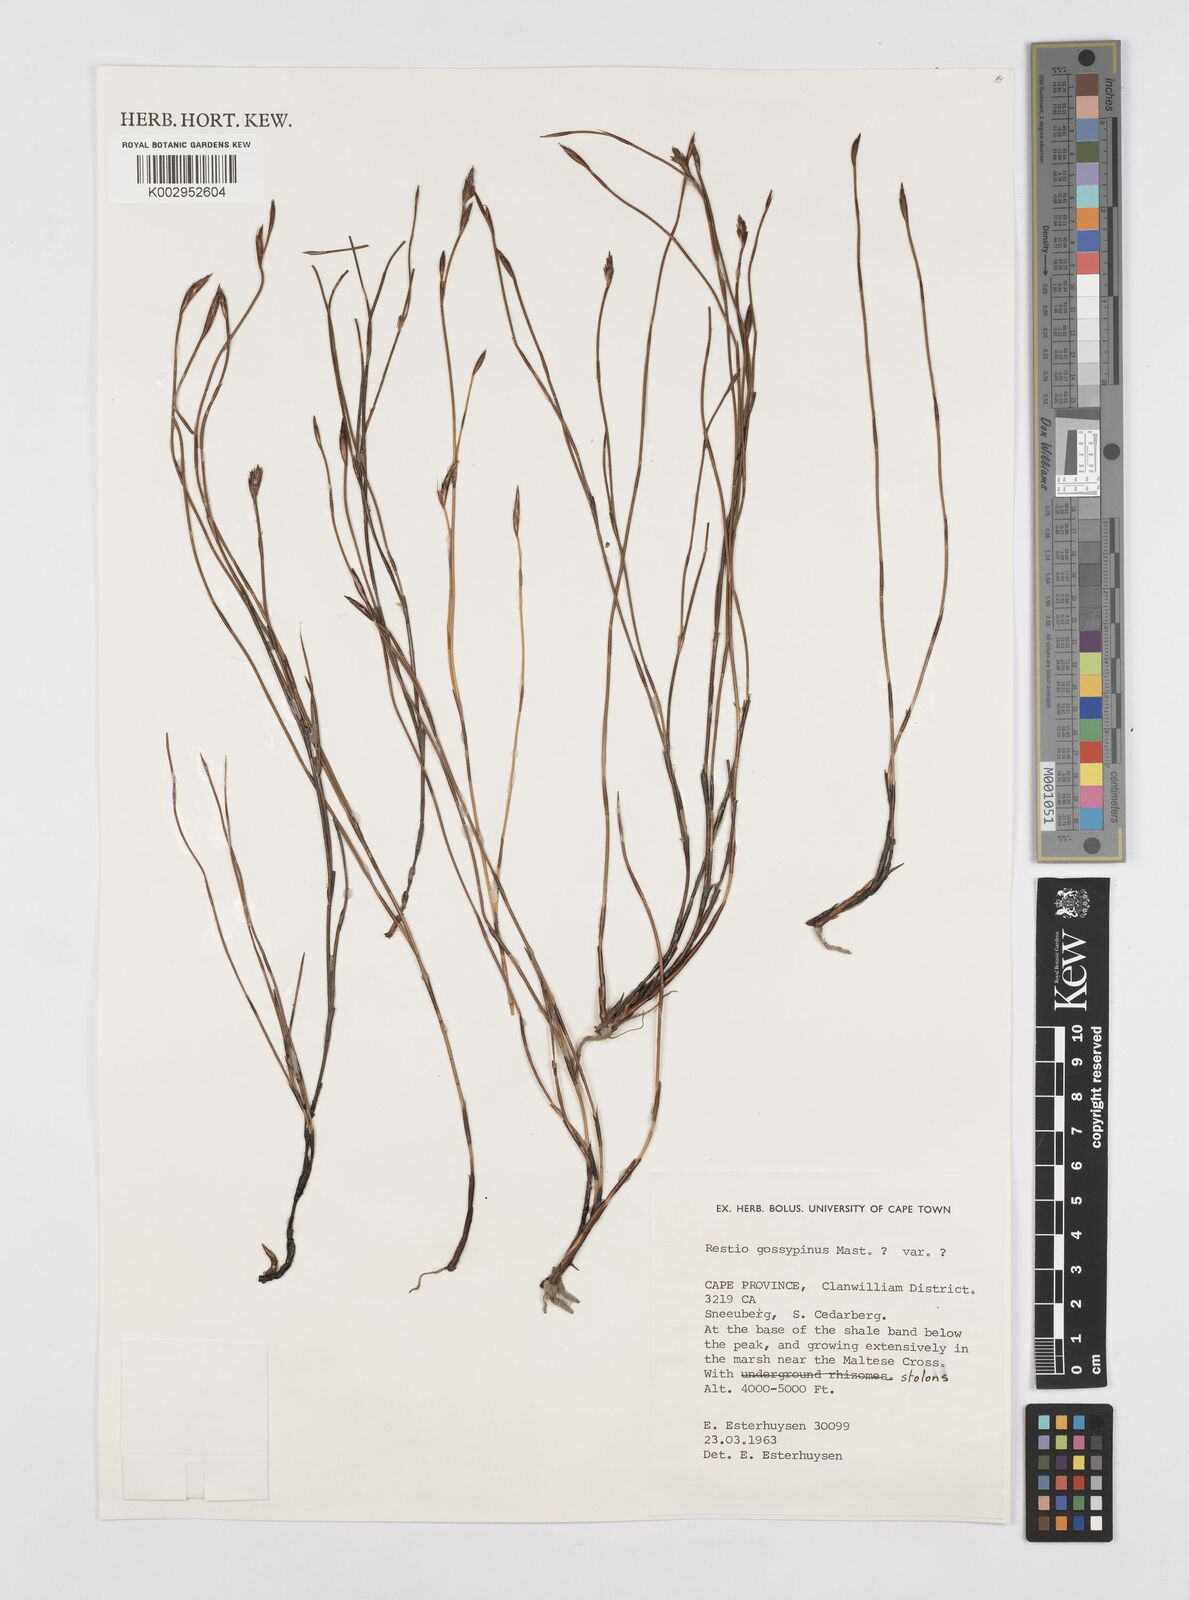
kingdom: Plantae
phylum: Tracheophyta
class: Liliopsida
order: Poales
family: Restionaceae
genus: Restio
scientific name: Restio gossypinus
